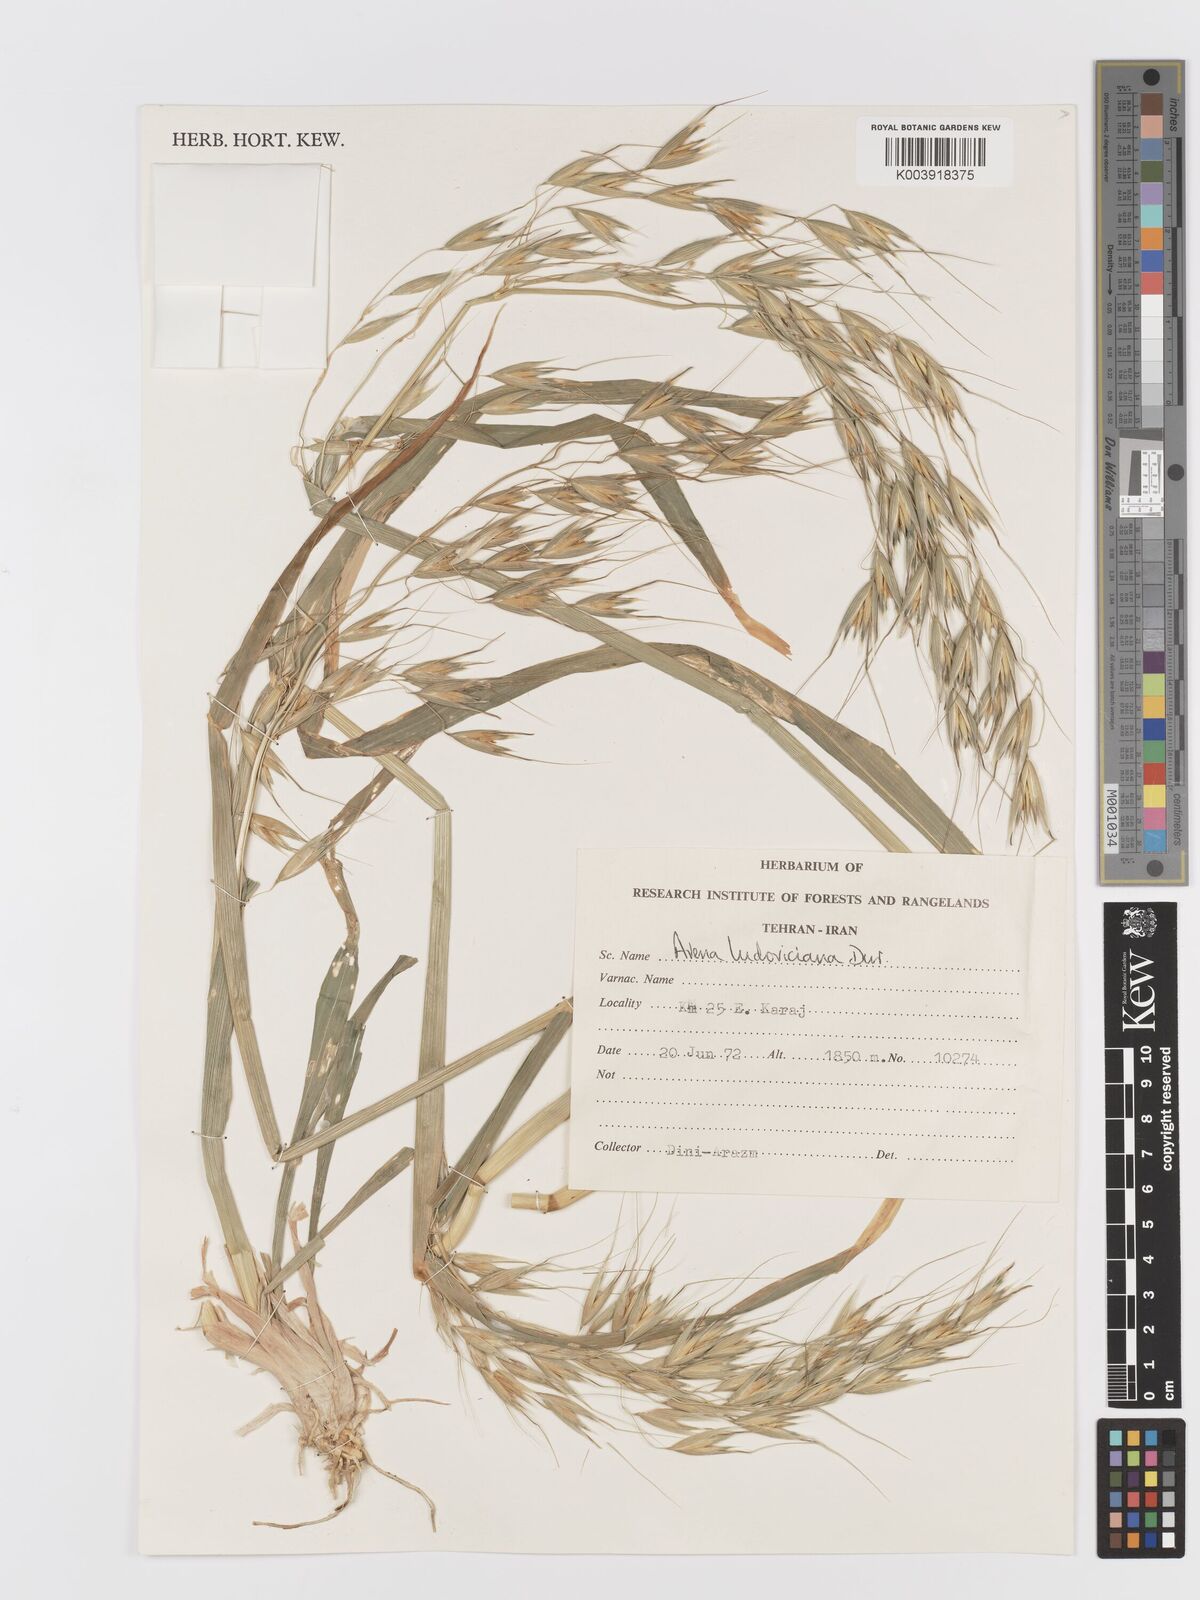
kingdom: Plantae
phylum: Tracheophyta
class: Liliopsida
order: Poales
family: Poaceae
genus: Avena
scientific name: Avena sterilis
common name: Animated oat
